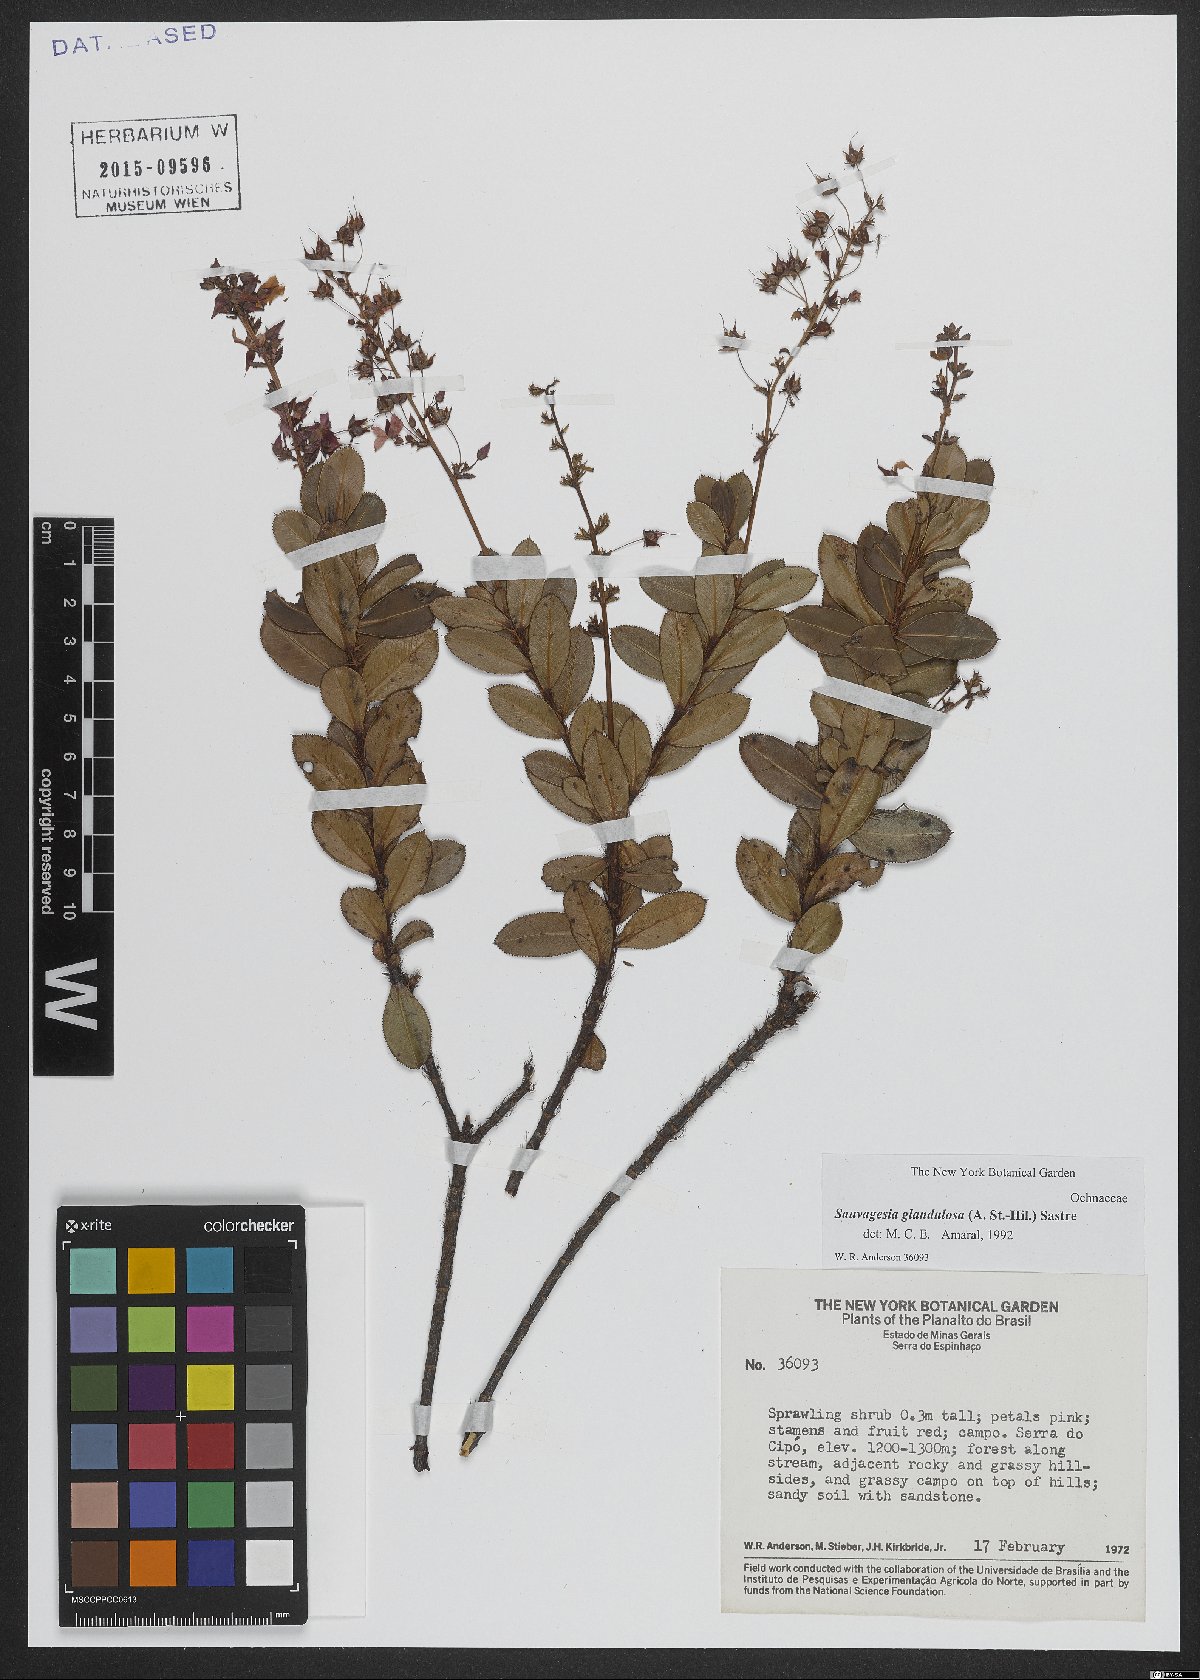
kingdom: Plantae
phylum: Tracheophyta
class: Magnoliopsida
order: Malpighiales
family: Ochnaceae
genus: Sauvagesia
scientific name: Sauvagesia glandulosa
